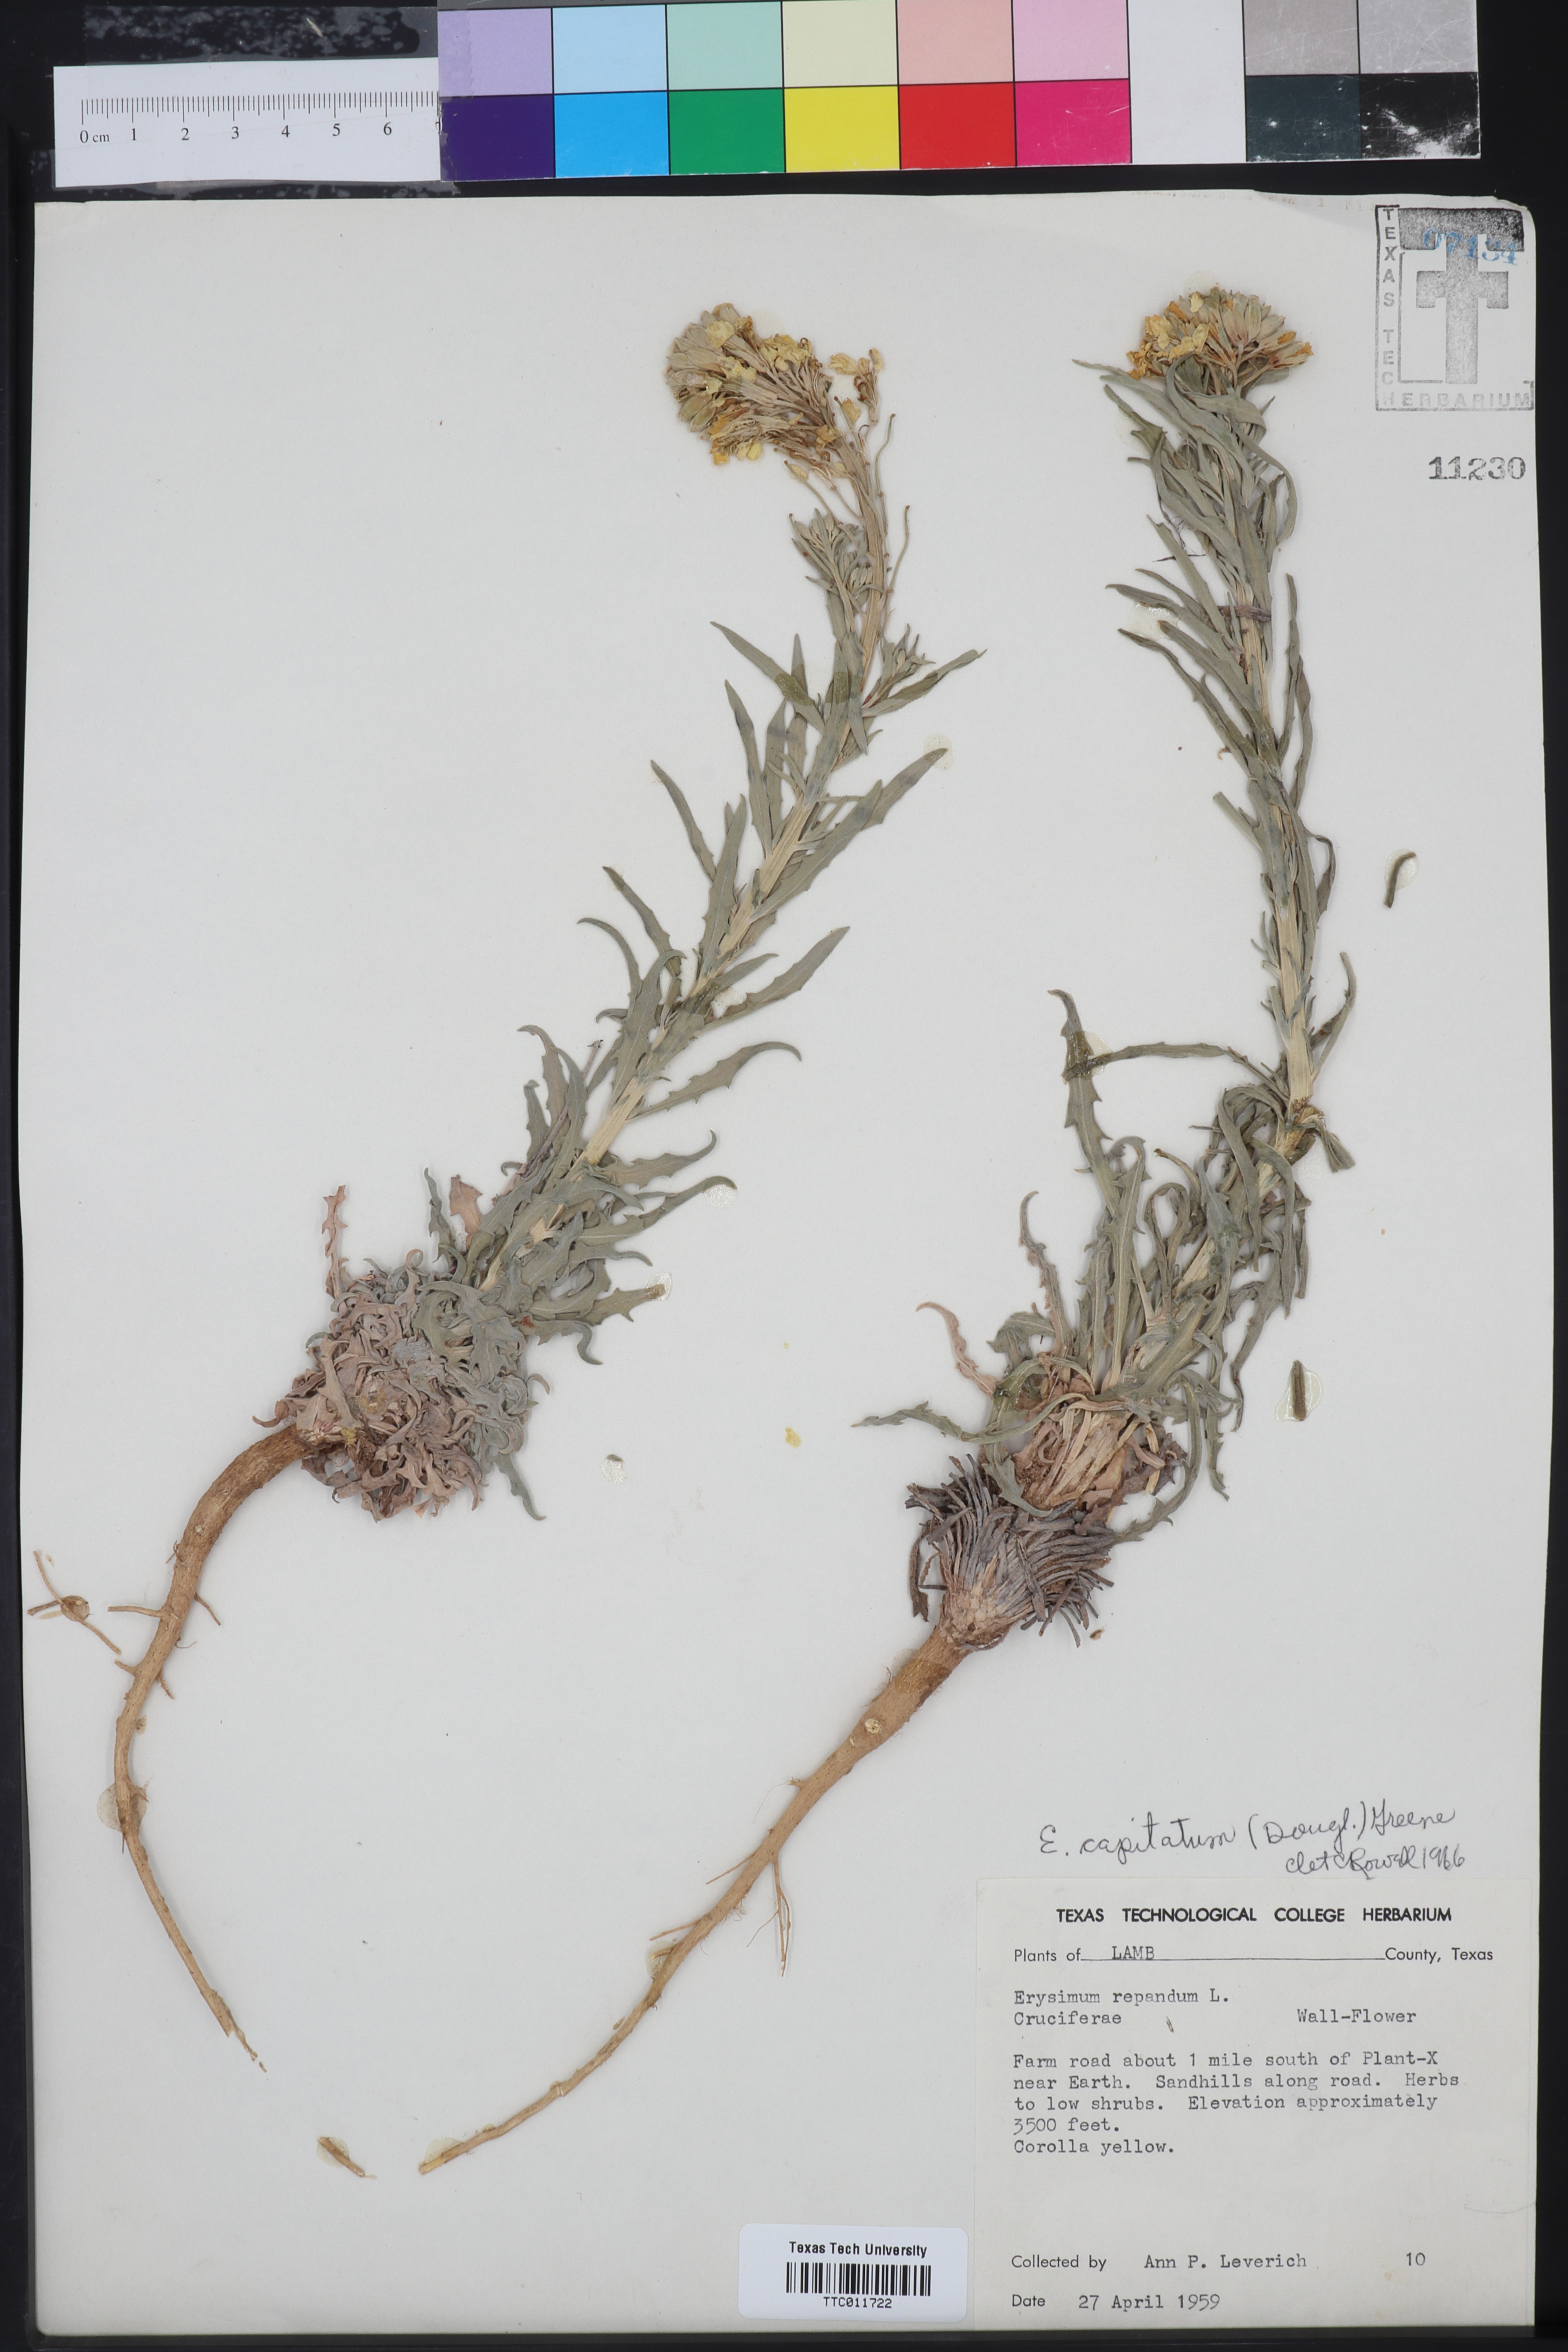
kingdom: Plantae
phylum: Tracheophyta
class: Magnoliopsida
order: Brassicales
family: Brassicaceae
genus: Erysimum
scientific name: Erysimum capitatum
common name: Western wallflower
